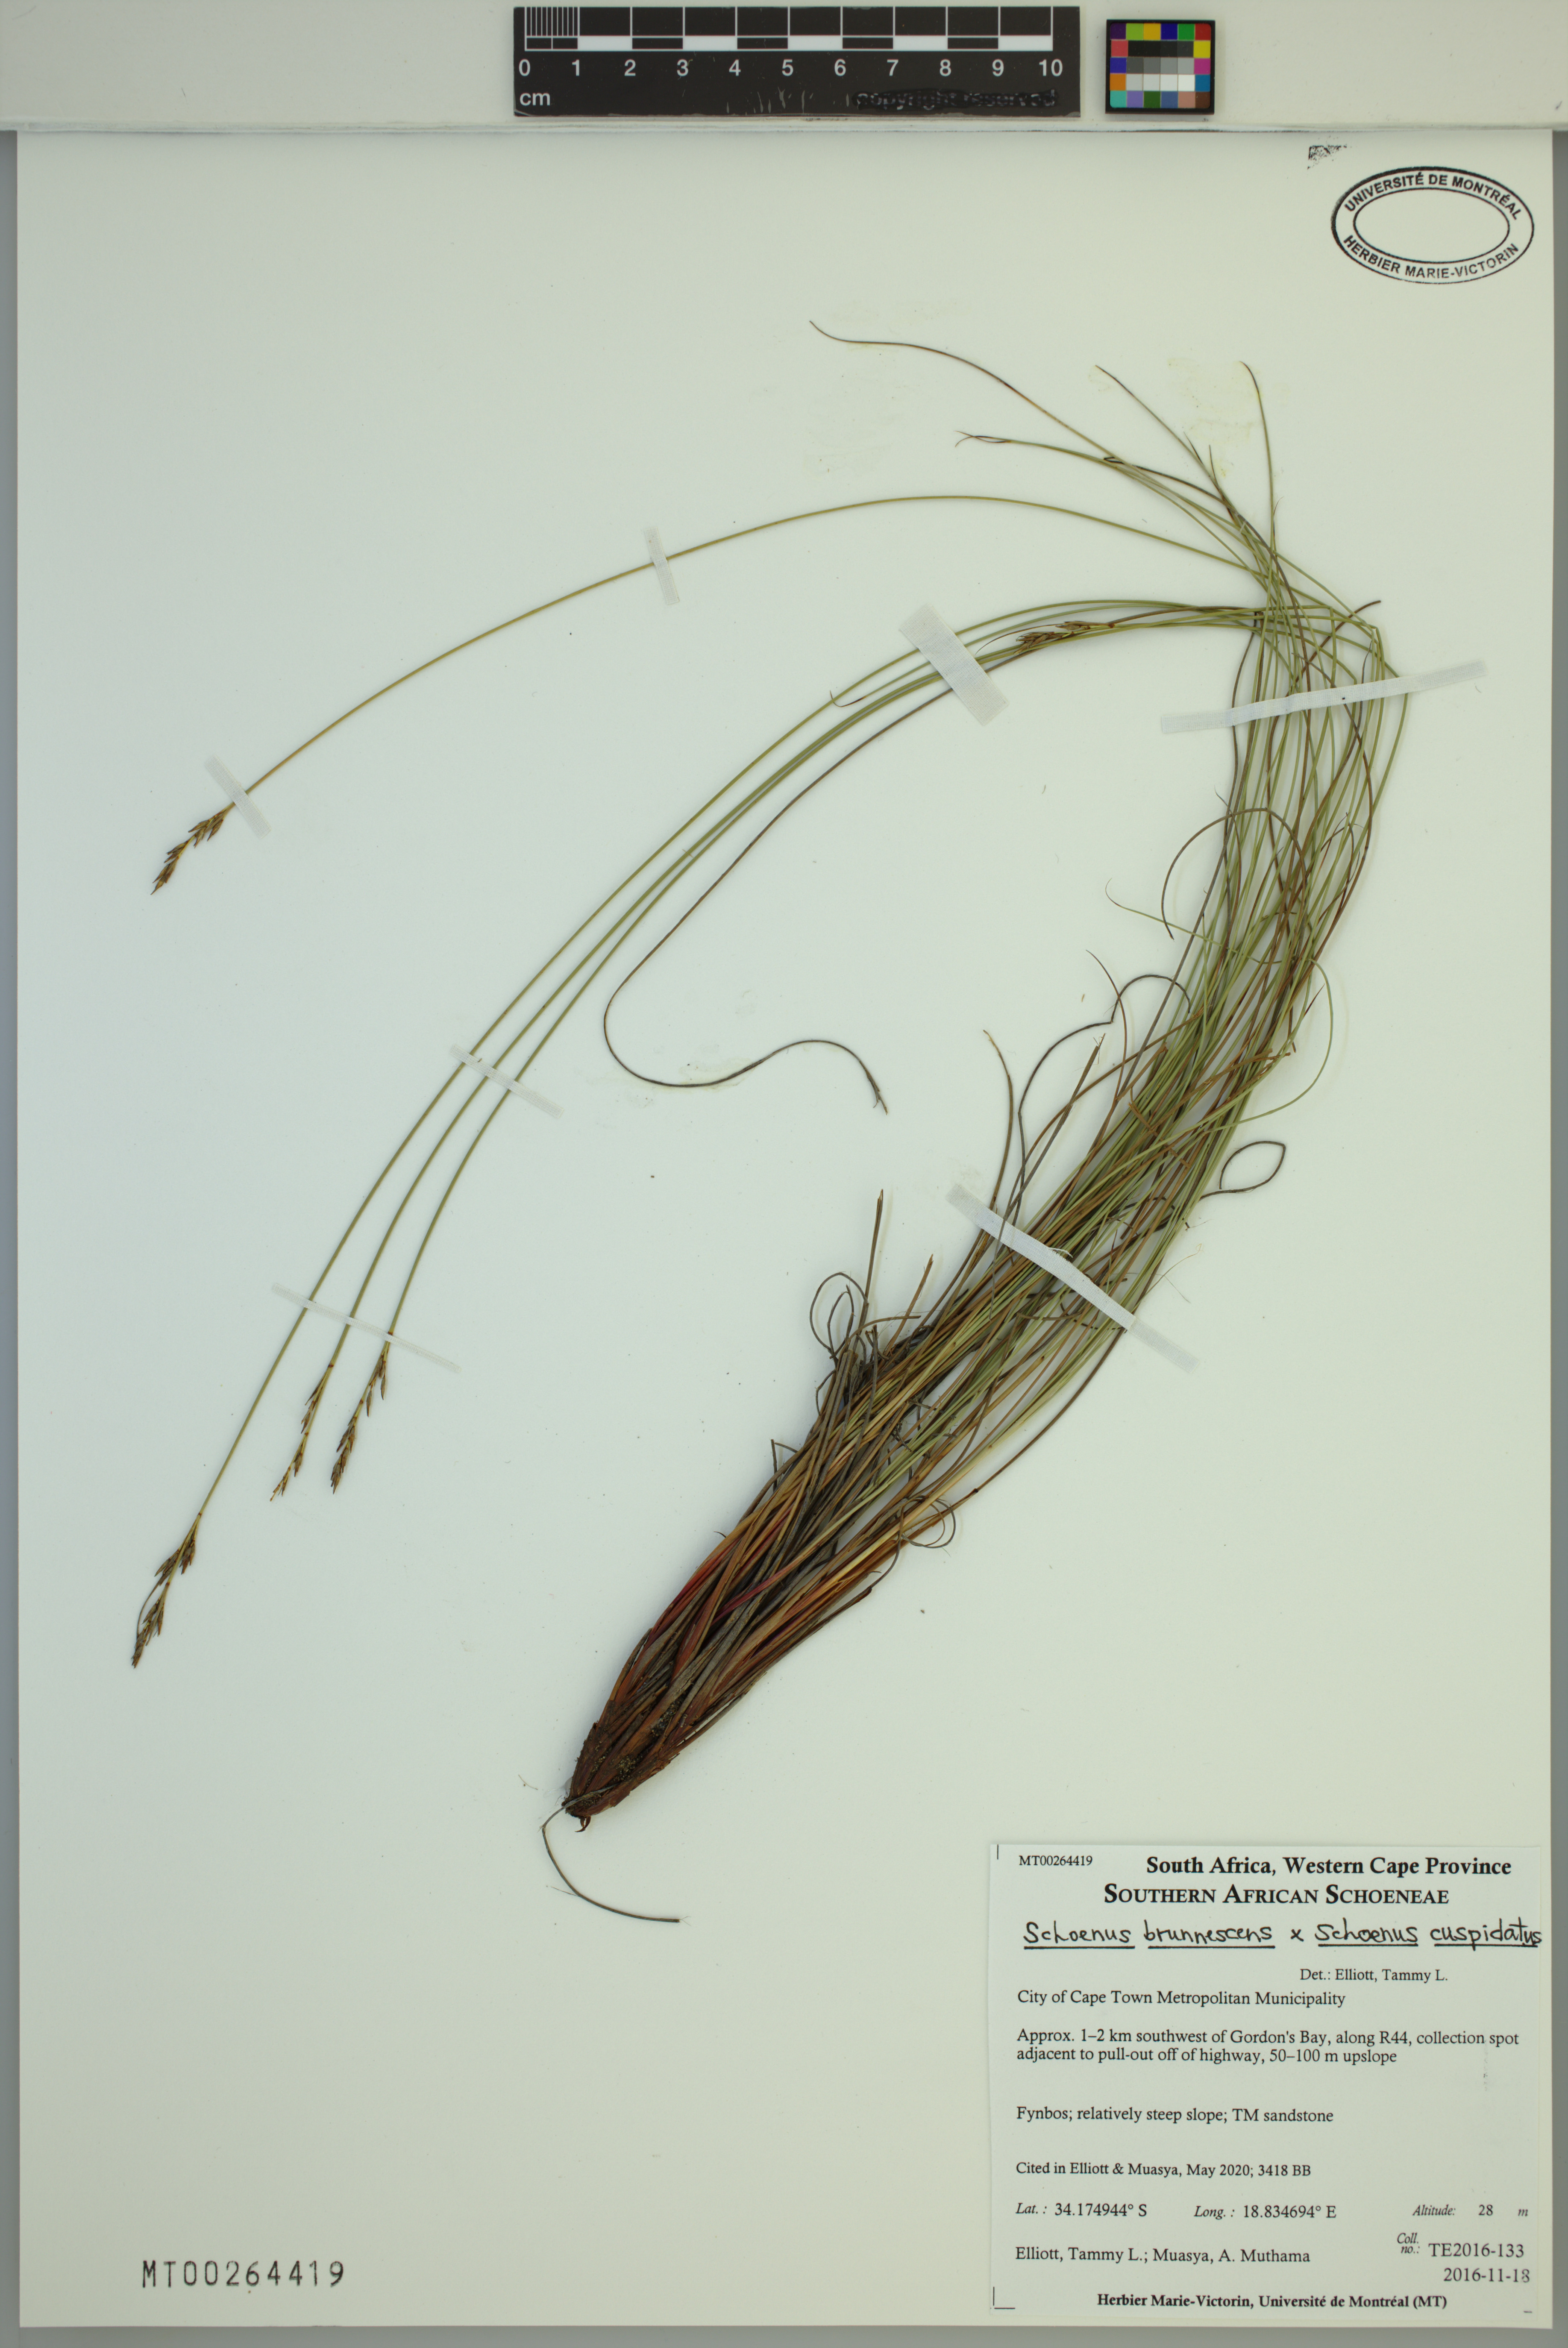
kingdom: Plantae
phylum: Tracheophyta
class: Liliopsida
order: Poales
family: Cyperaceae
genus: Schoenus
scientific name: Schoenus
